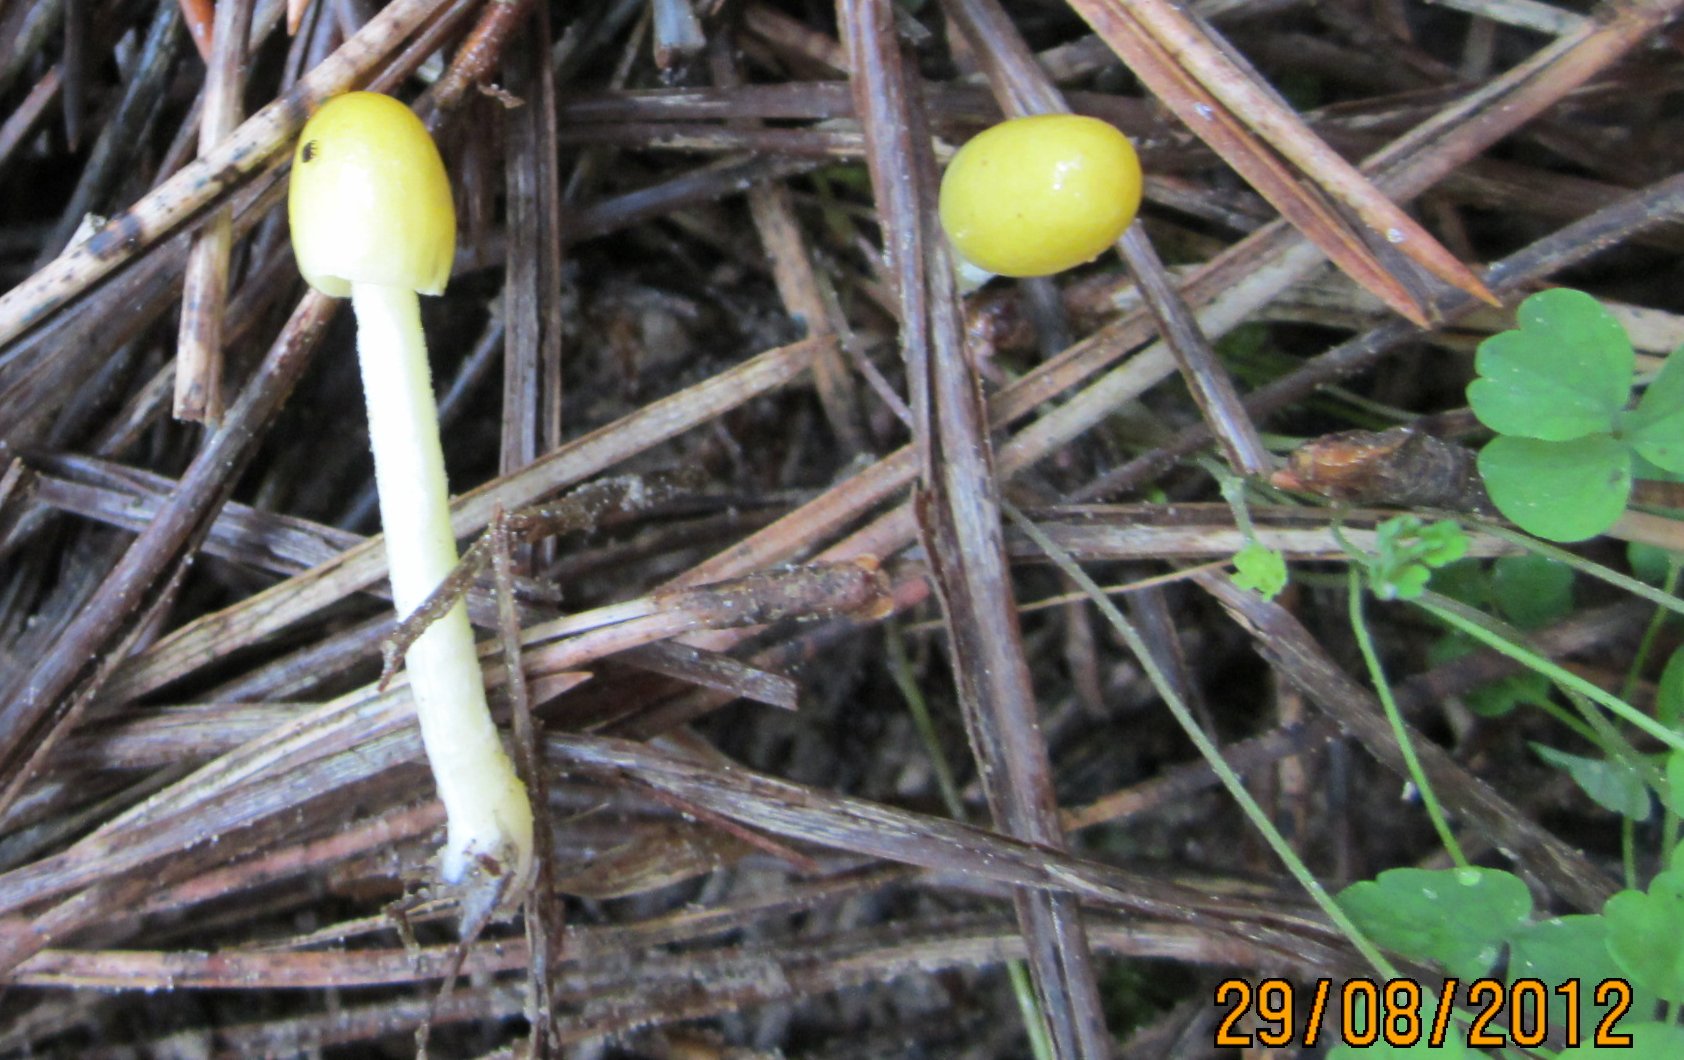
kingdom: Fungi
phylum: Basidiomycota
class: Agaricomycetes
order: Agaricales
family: Bolbitiaceae
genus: Bolbitius
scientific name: Bolbitius titubans
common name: almindelig gulhat
